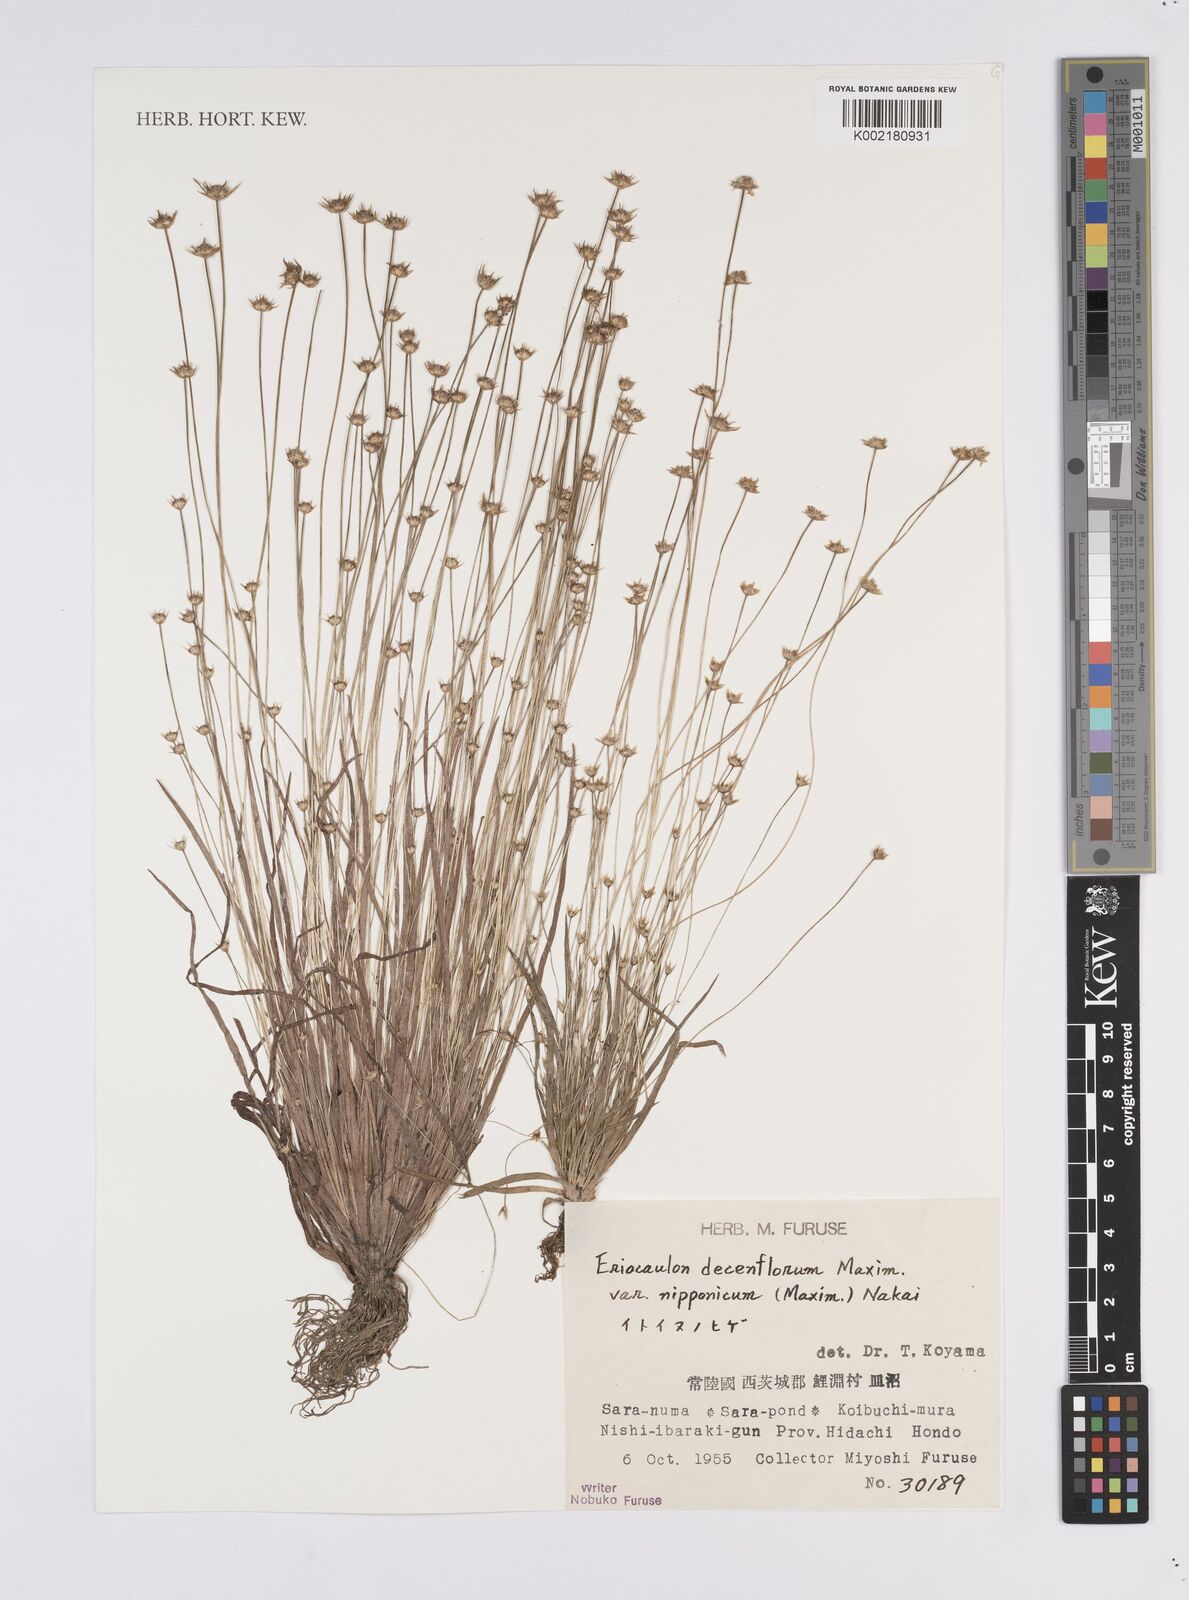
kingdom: Plantae
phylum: Tracheophyta
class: Liliopsida
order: Poales
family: Eriocaulaceae
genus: Eriocaulon
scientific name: Eriocaulon decemflorum
